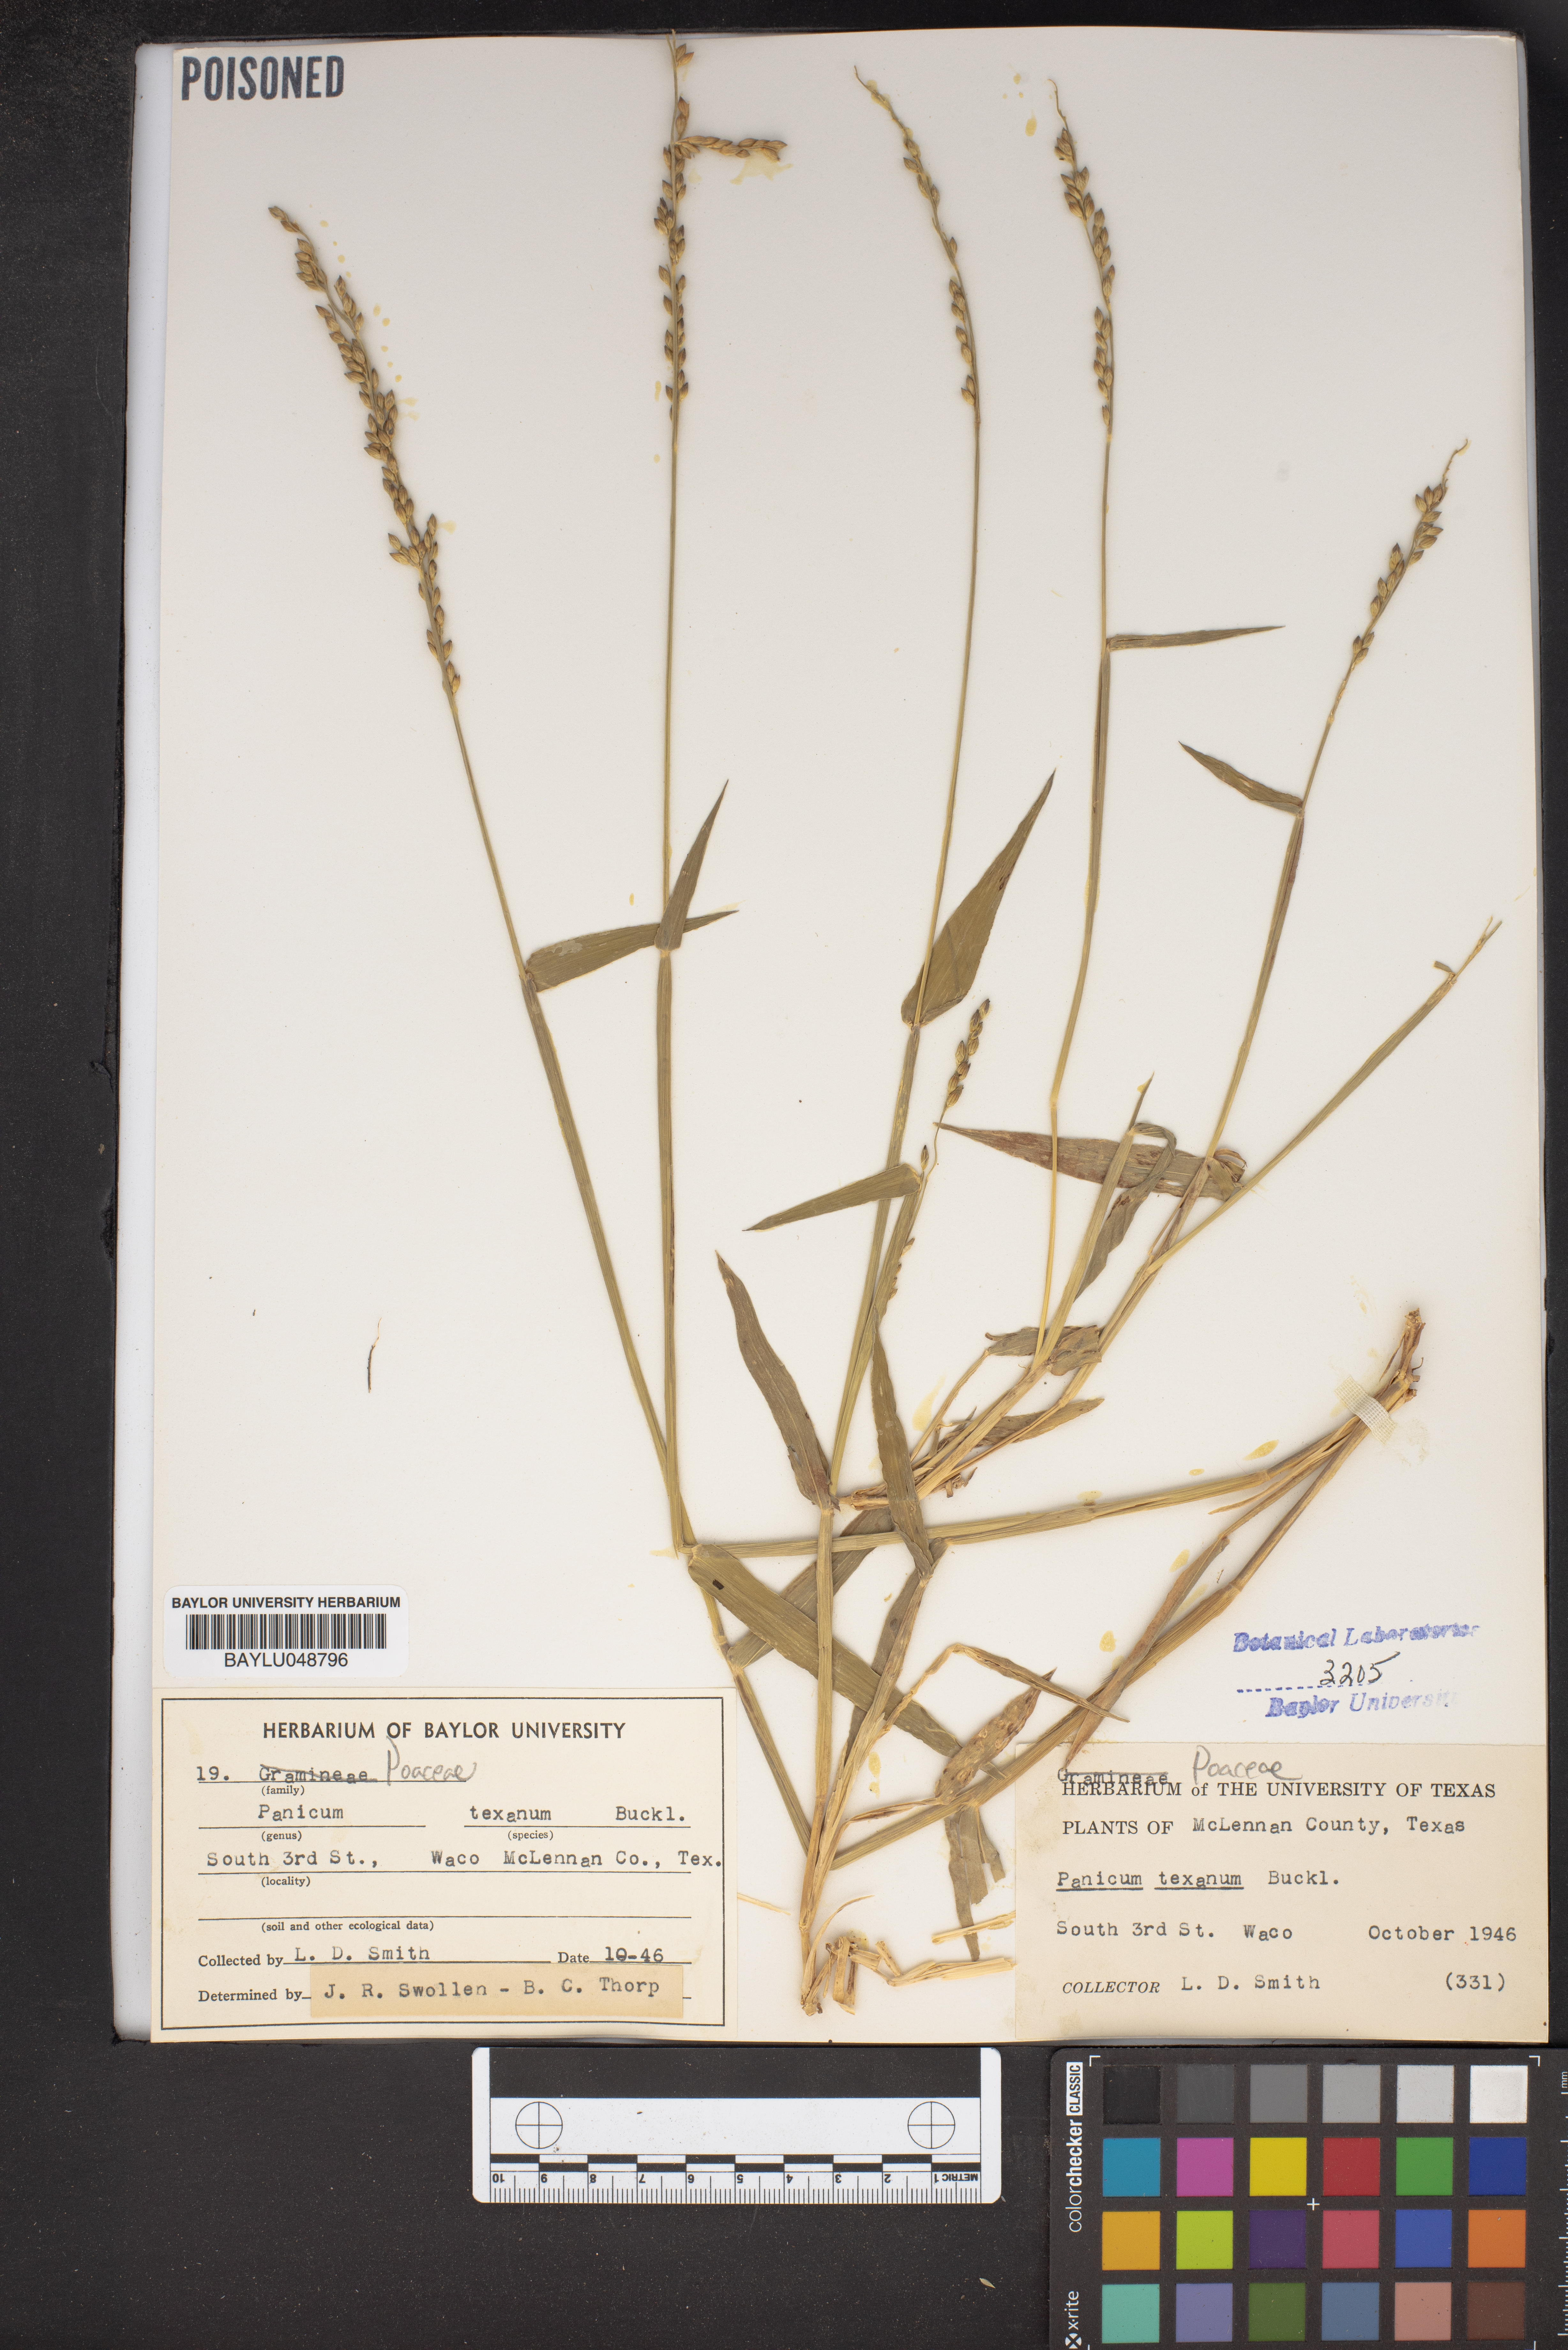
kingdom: Plantae
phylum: Tracheophyta
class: Liliopsida
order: Poales
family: Poaceae
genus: Urochloa
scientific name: Urochloa texana
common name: Texas millet
